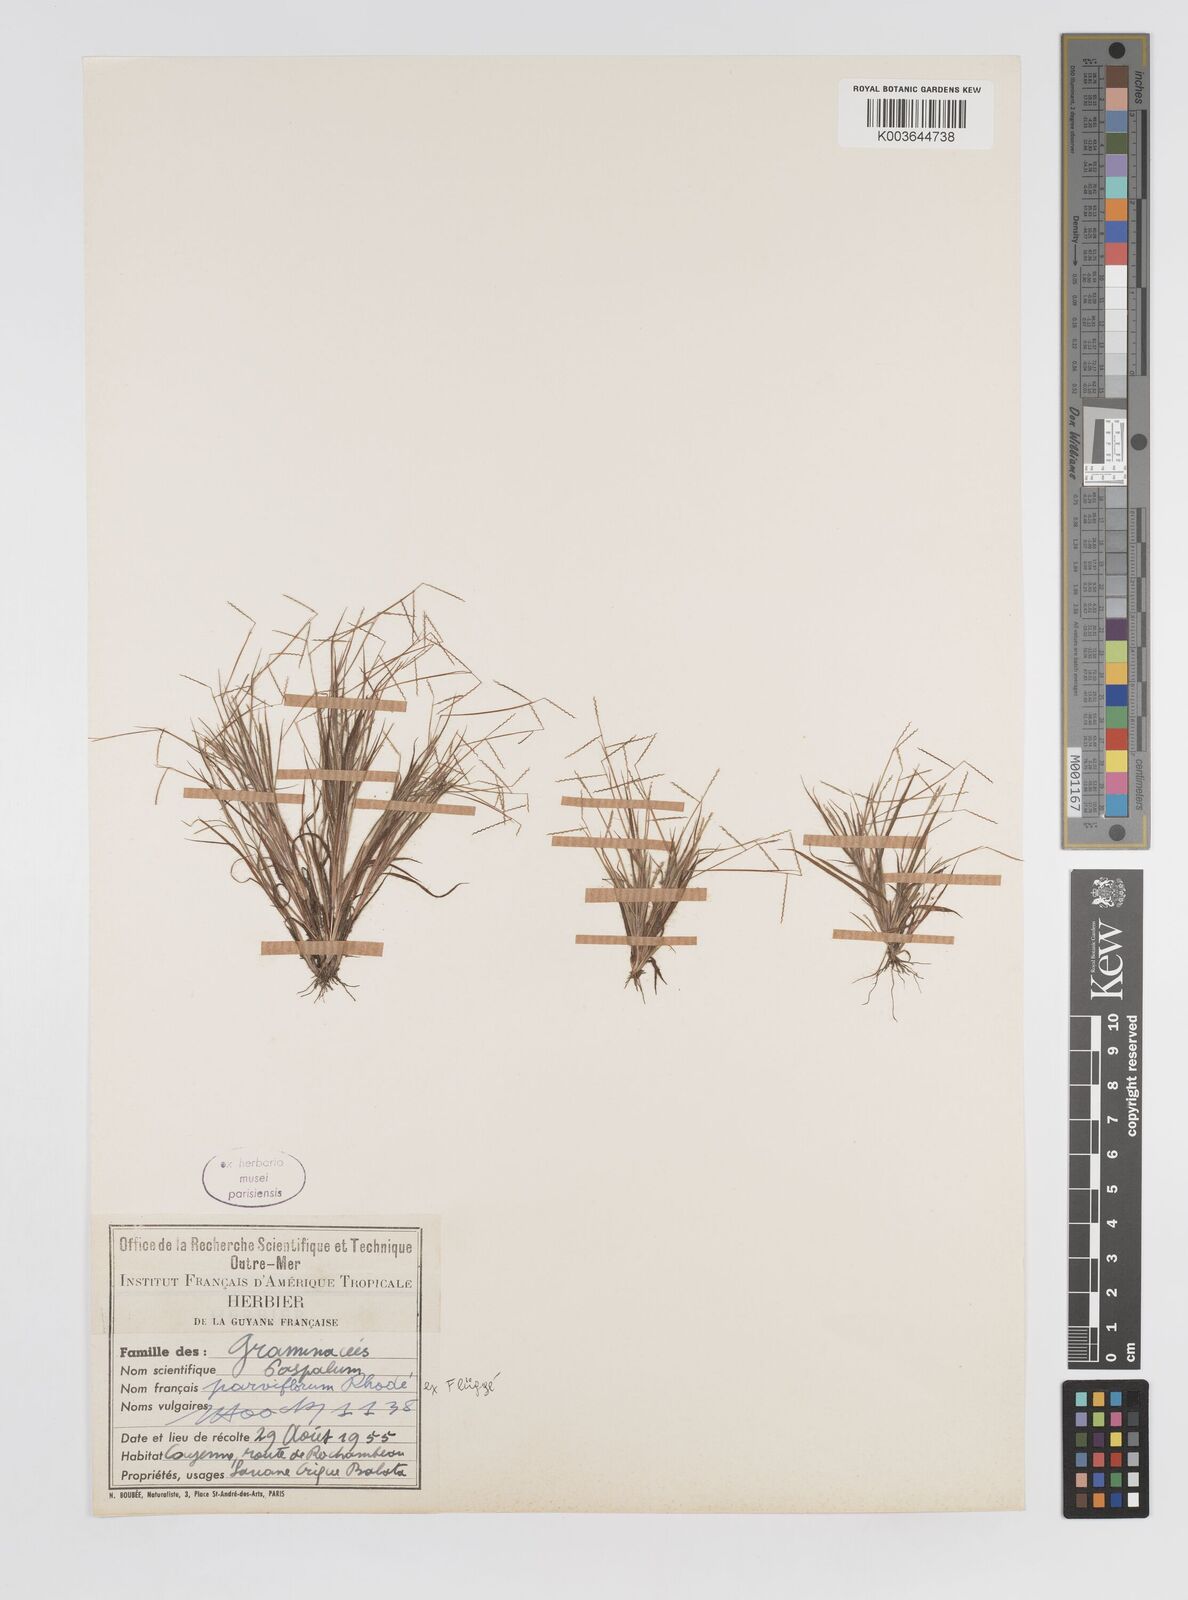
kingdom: Plantae
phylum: Tracheophyta
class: Liliopsida
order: Poales
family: Poaceae
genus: Paspalum
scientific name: Paspalum parviflorum
